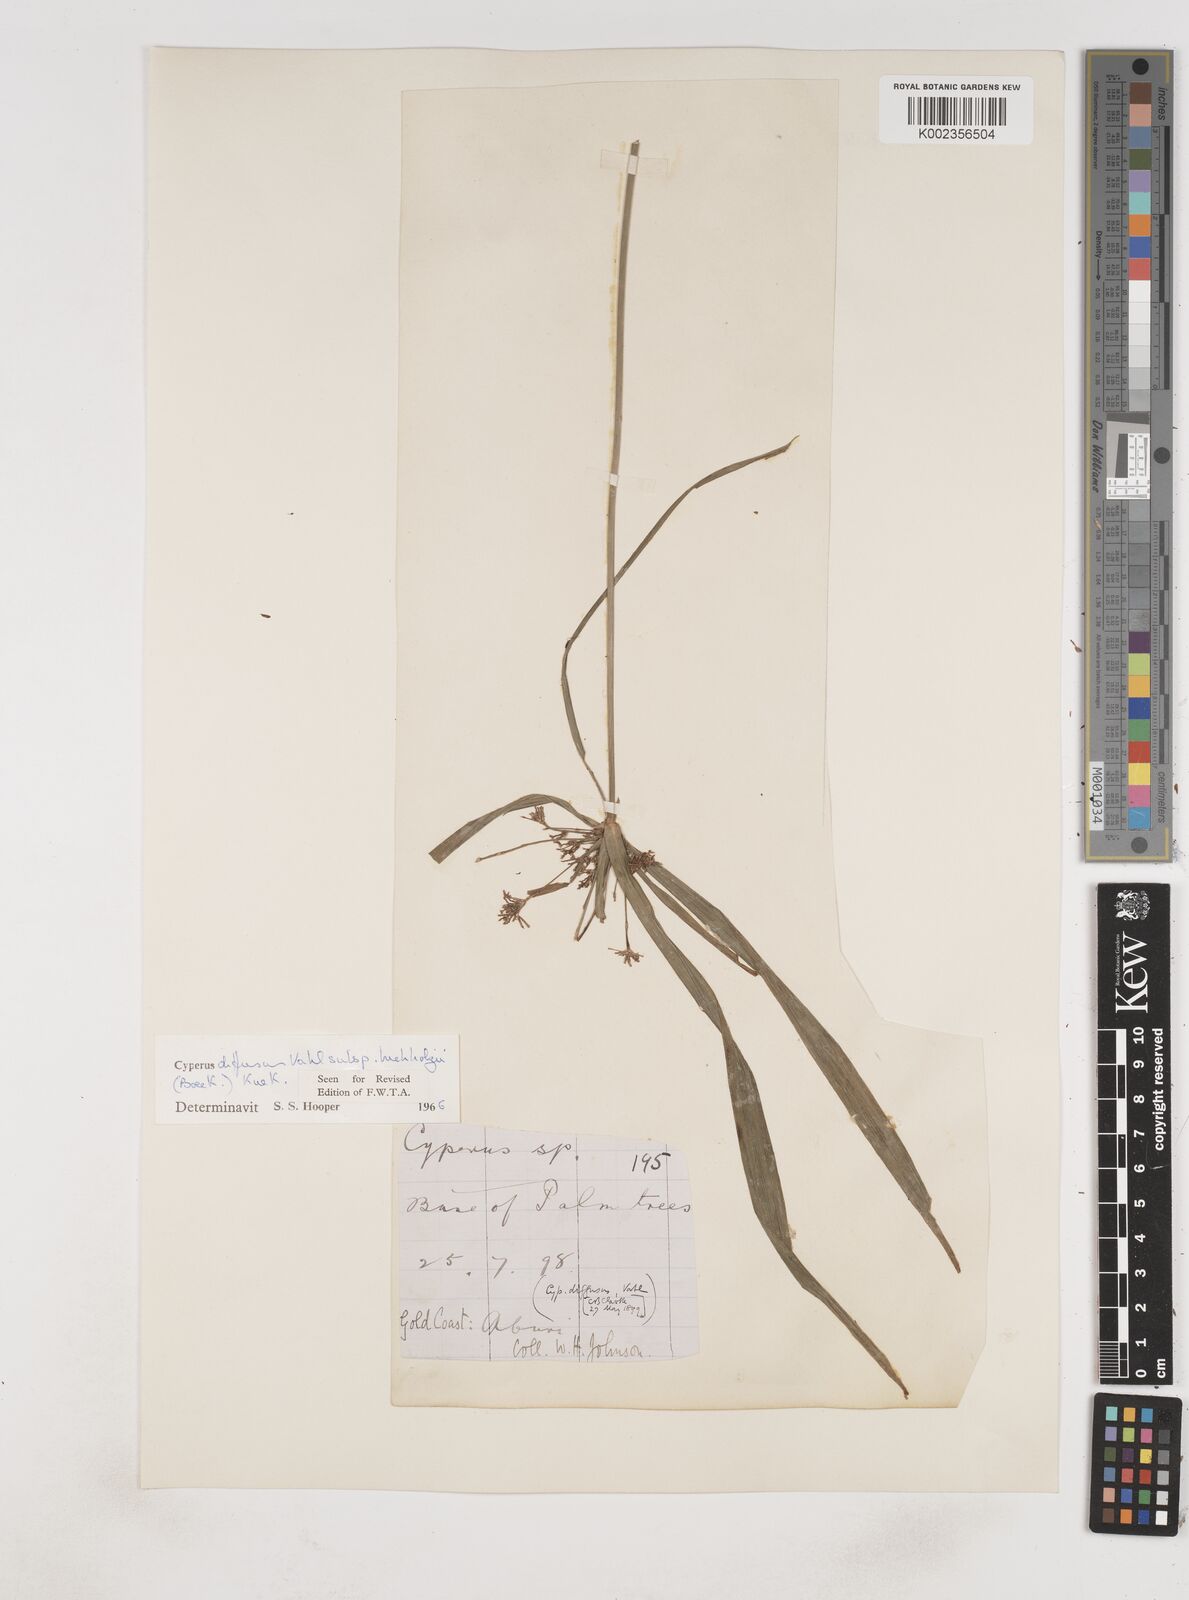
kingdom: Plantae
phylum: Tracheophyta
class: Liliopsida
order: Poales
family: Cyperaceae
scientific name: Cyperaceae
